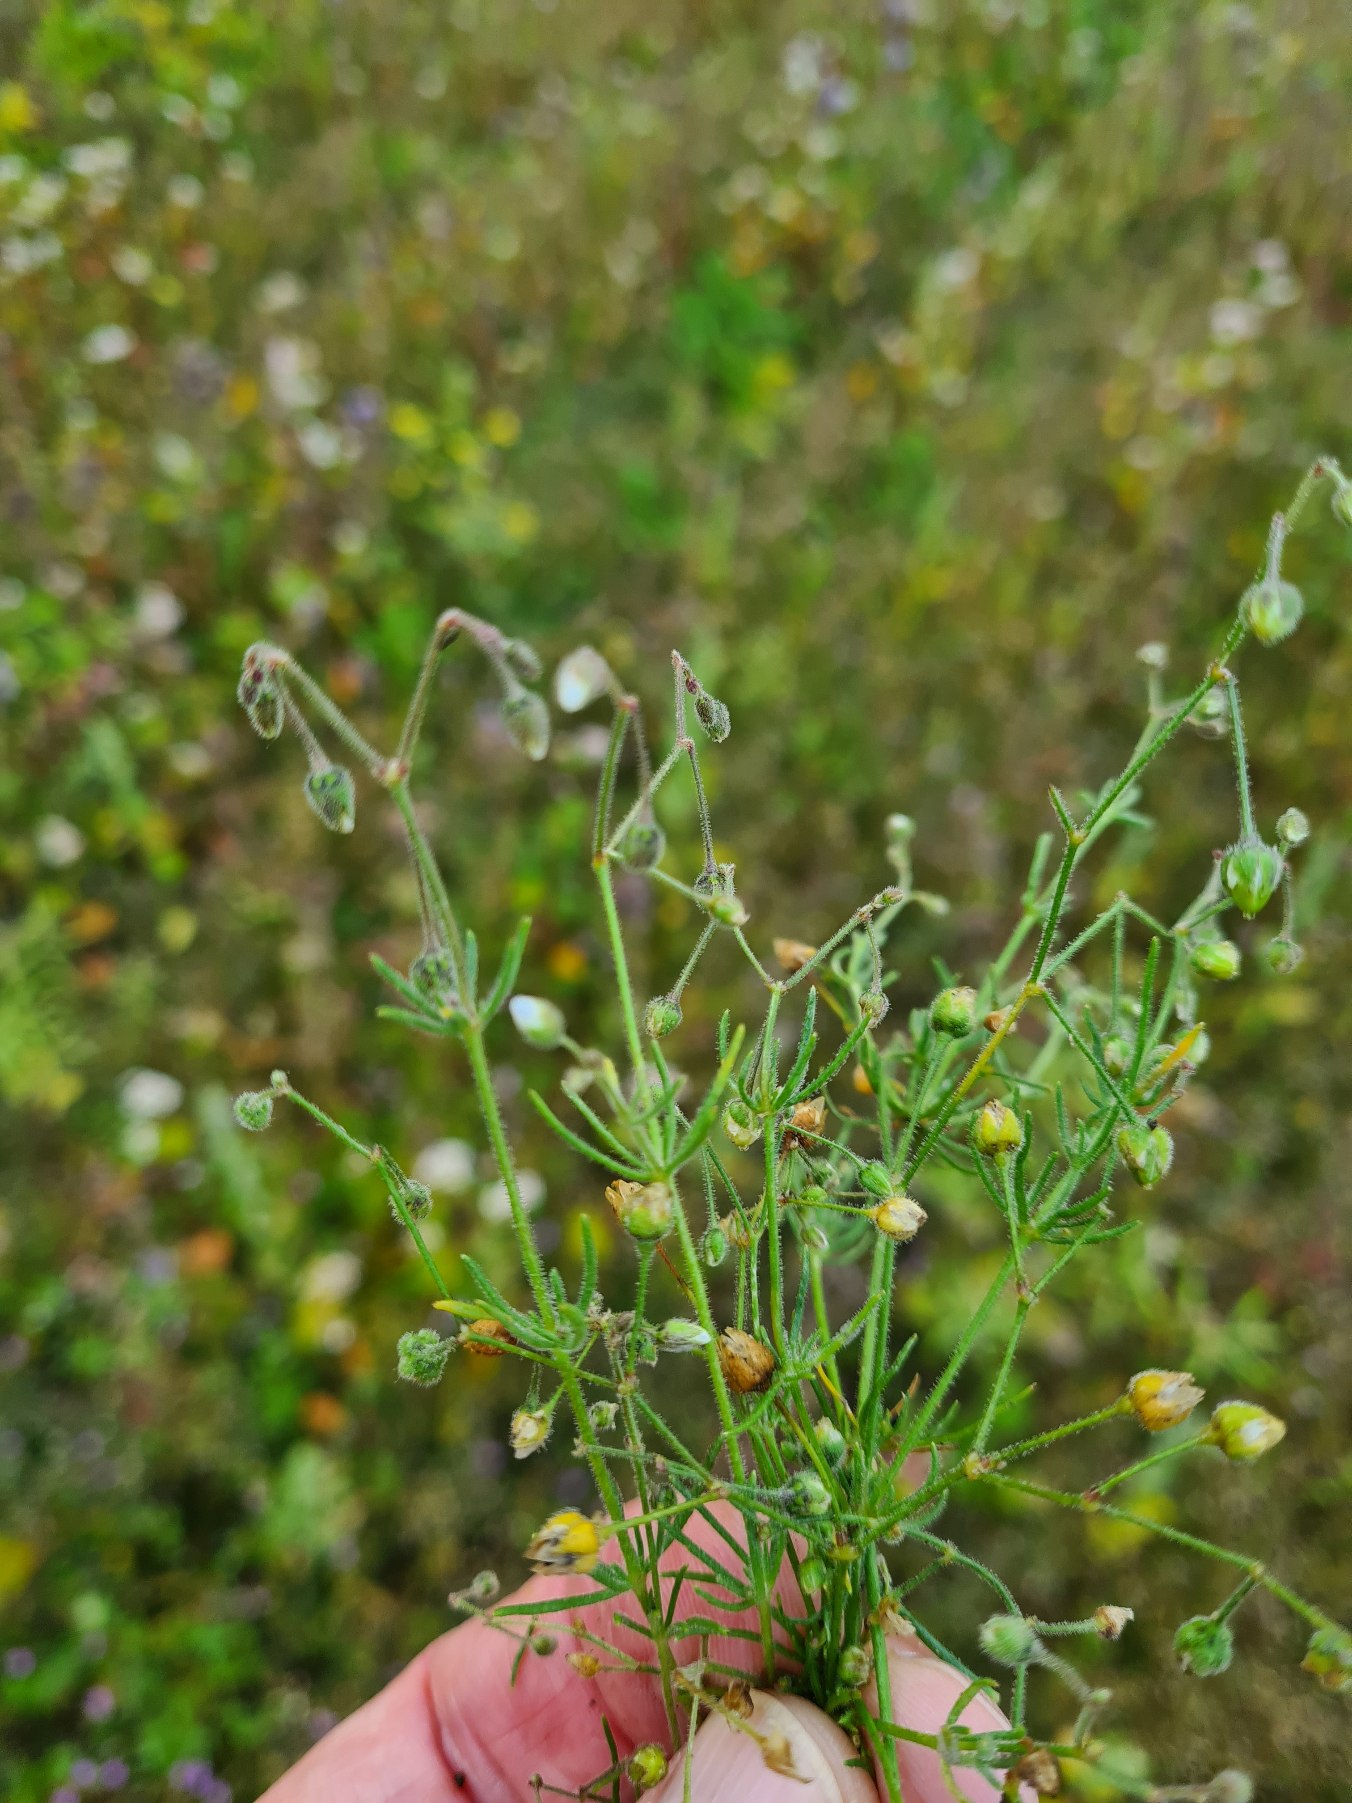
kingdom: Plantae
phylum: Tracheophyta
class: Magnoliopsida
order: Caryophyllales
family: Caryophyllaceae
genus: Spergula
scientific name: Spergula arvensis
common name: Almindelig spergel (underart)
